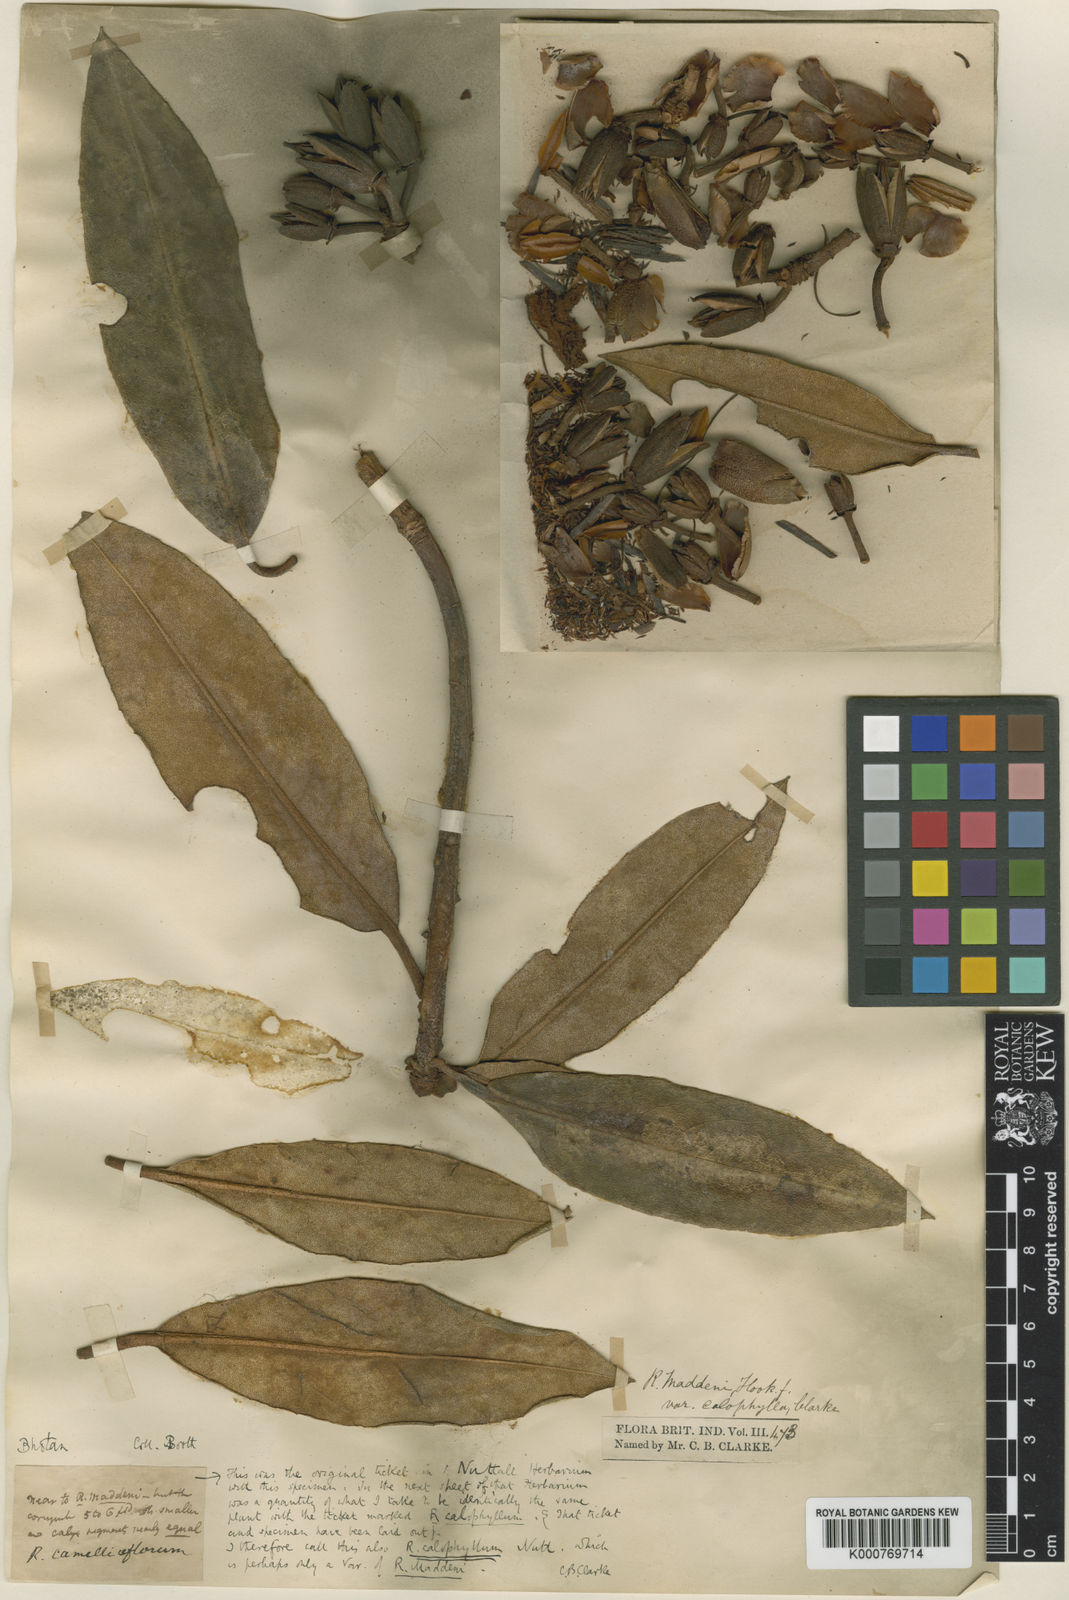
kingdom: Plantae
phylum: Tracheophyta
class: Magnoliopsida
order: Ericales
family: Ericaceae
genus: Rhododendron
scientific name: Rhododendron maddenii
